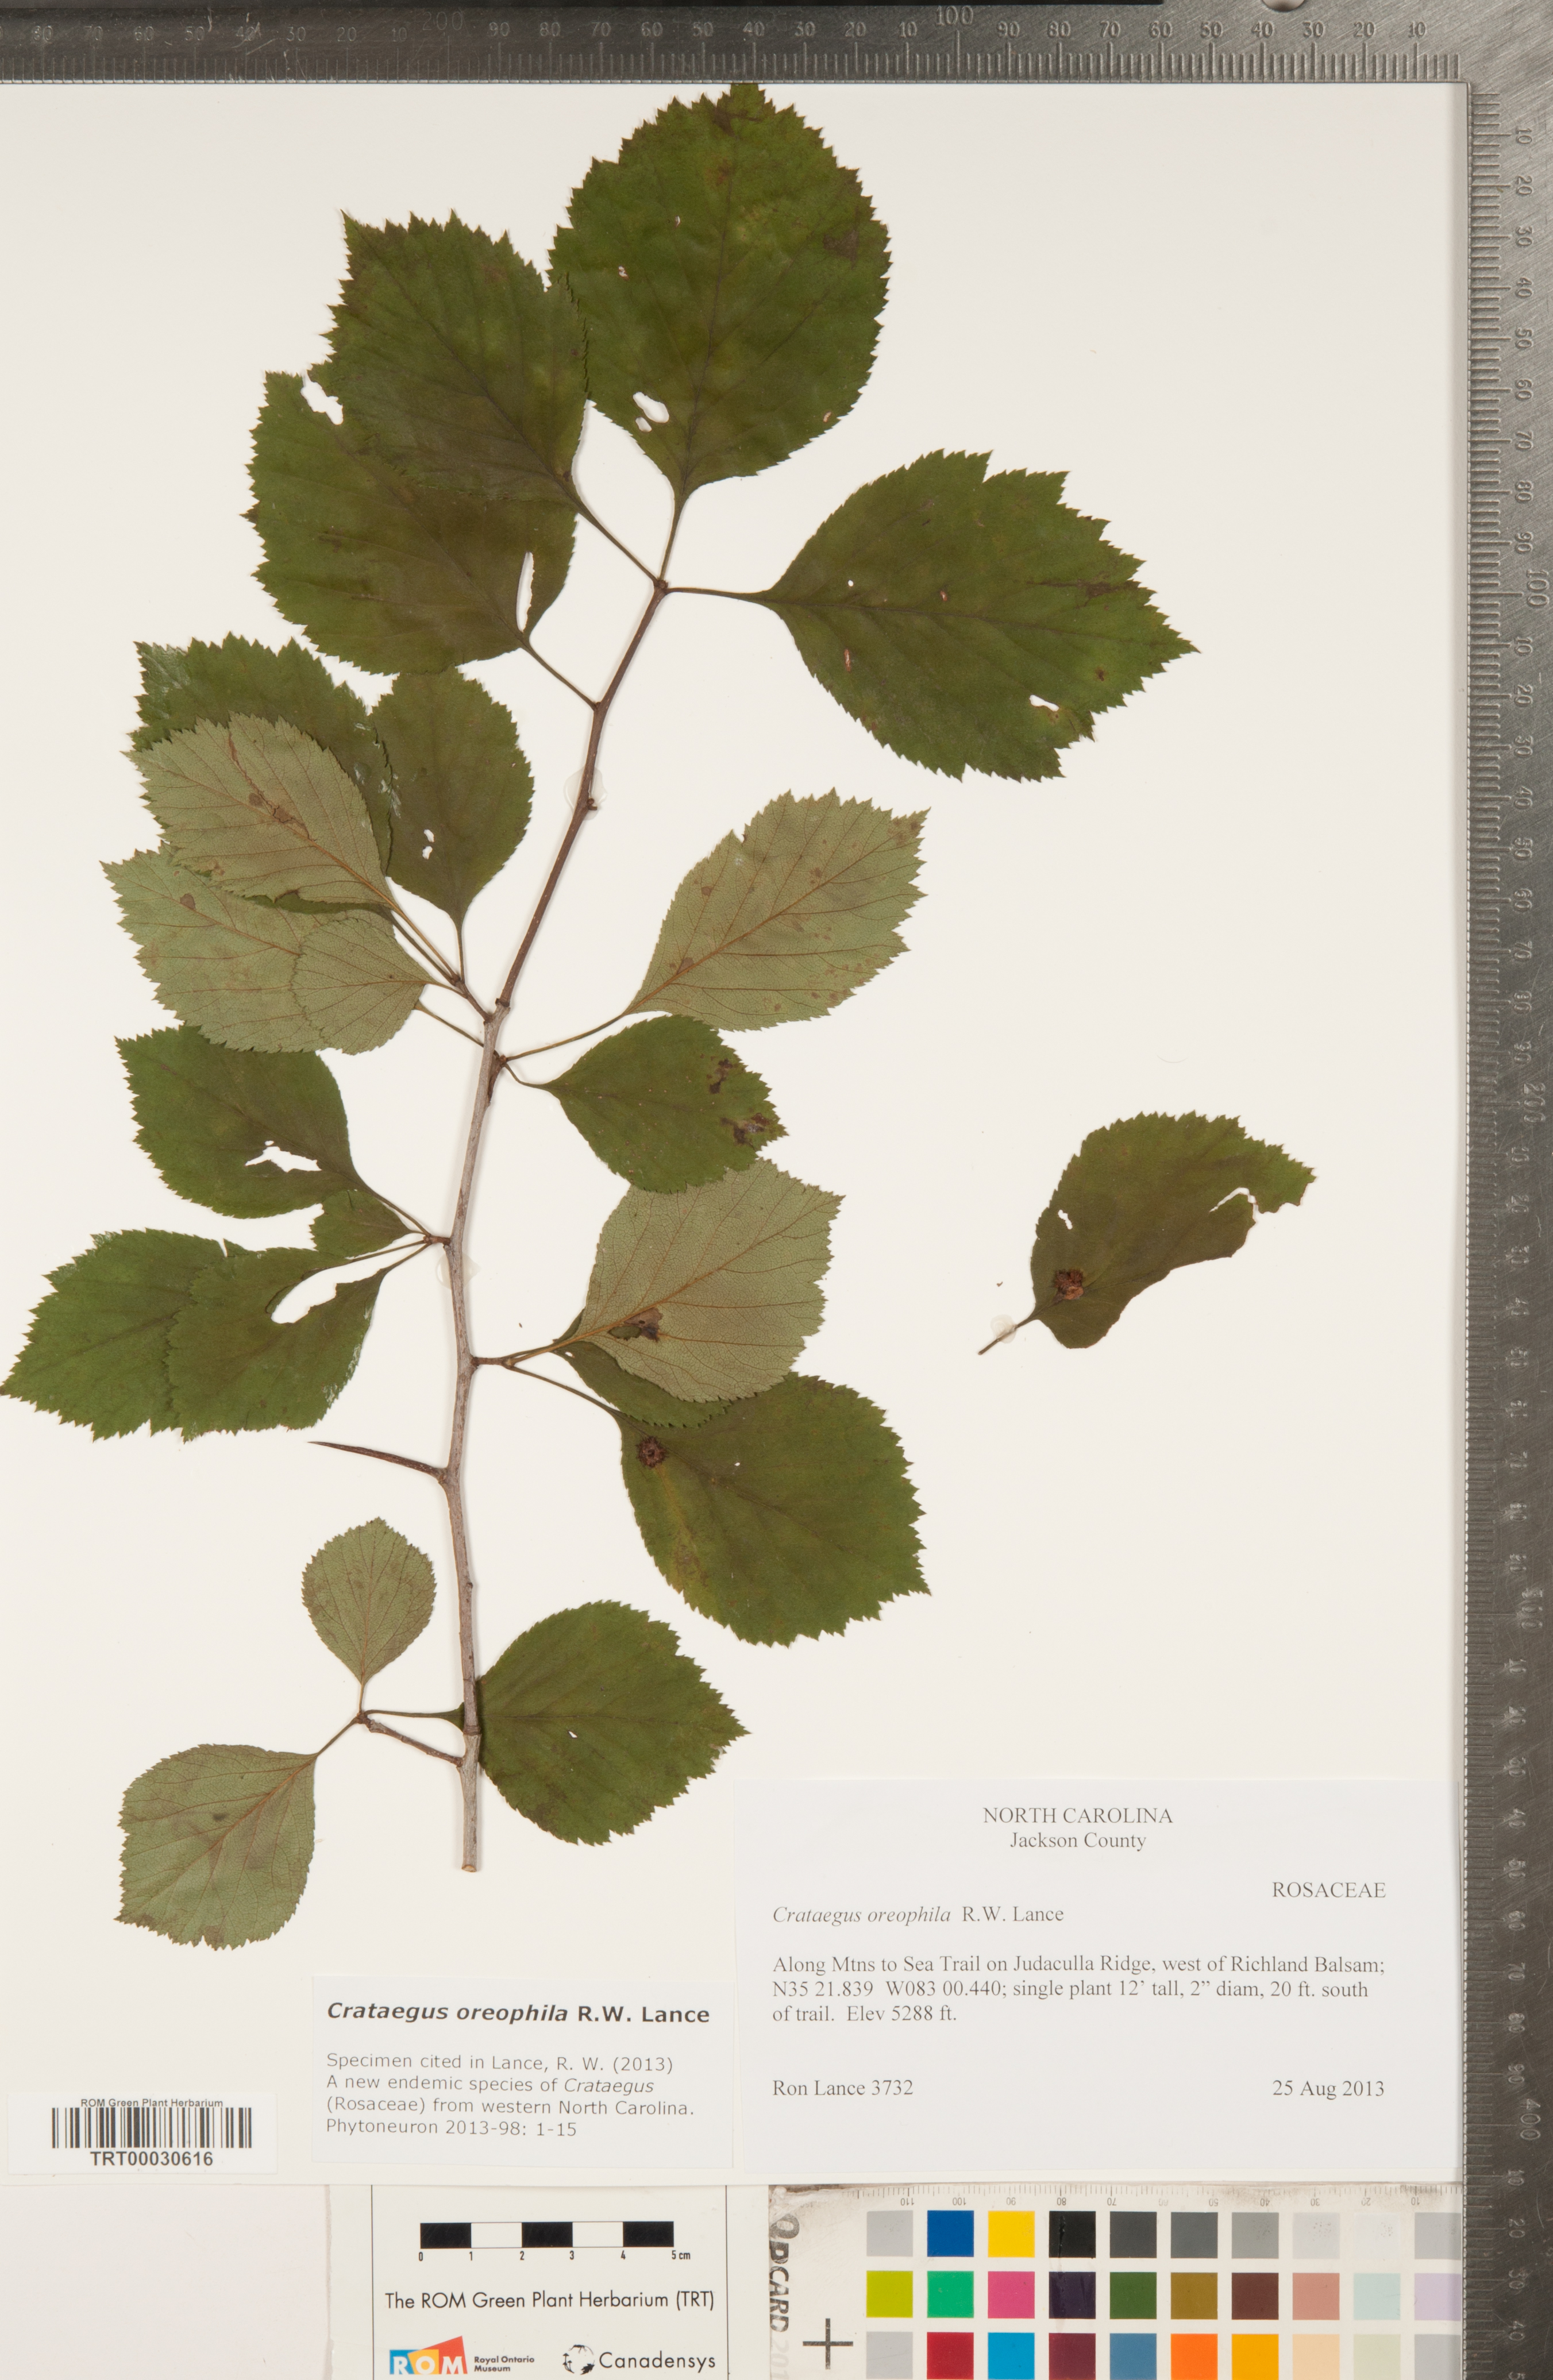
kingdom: Plantae
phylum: Tracheophyta
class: Magnoliopsida
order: Rosales
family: Rosaceae
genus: Crataegus
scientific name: Crataegus oreophila
